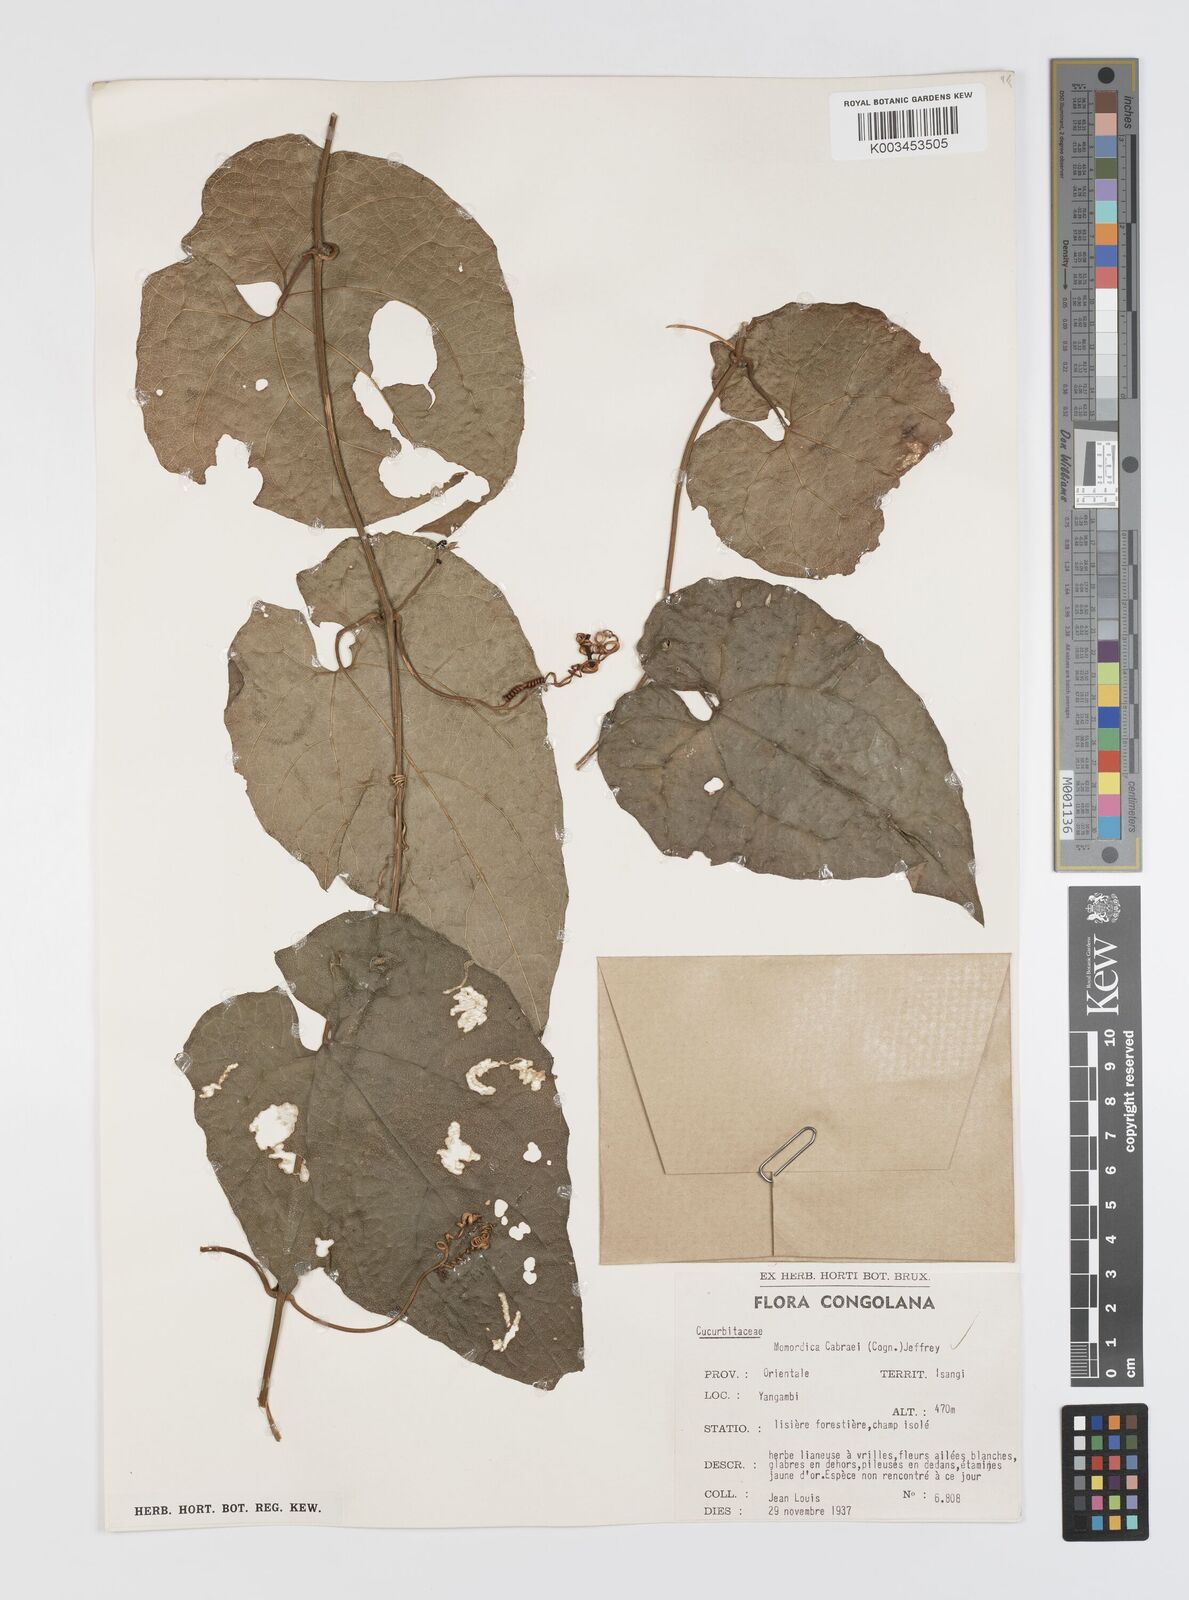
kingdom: Plantae
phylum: Tracheophyta
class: Magnoliopsida
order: Cucurbitales
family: Cucurbitaceae
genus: Momordica
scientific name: Momordica cabrae
